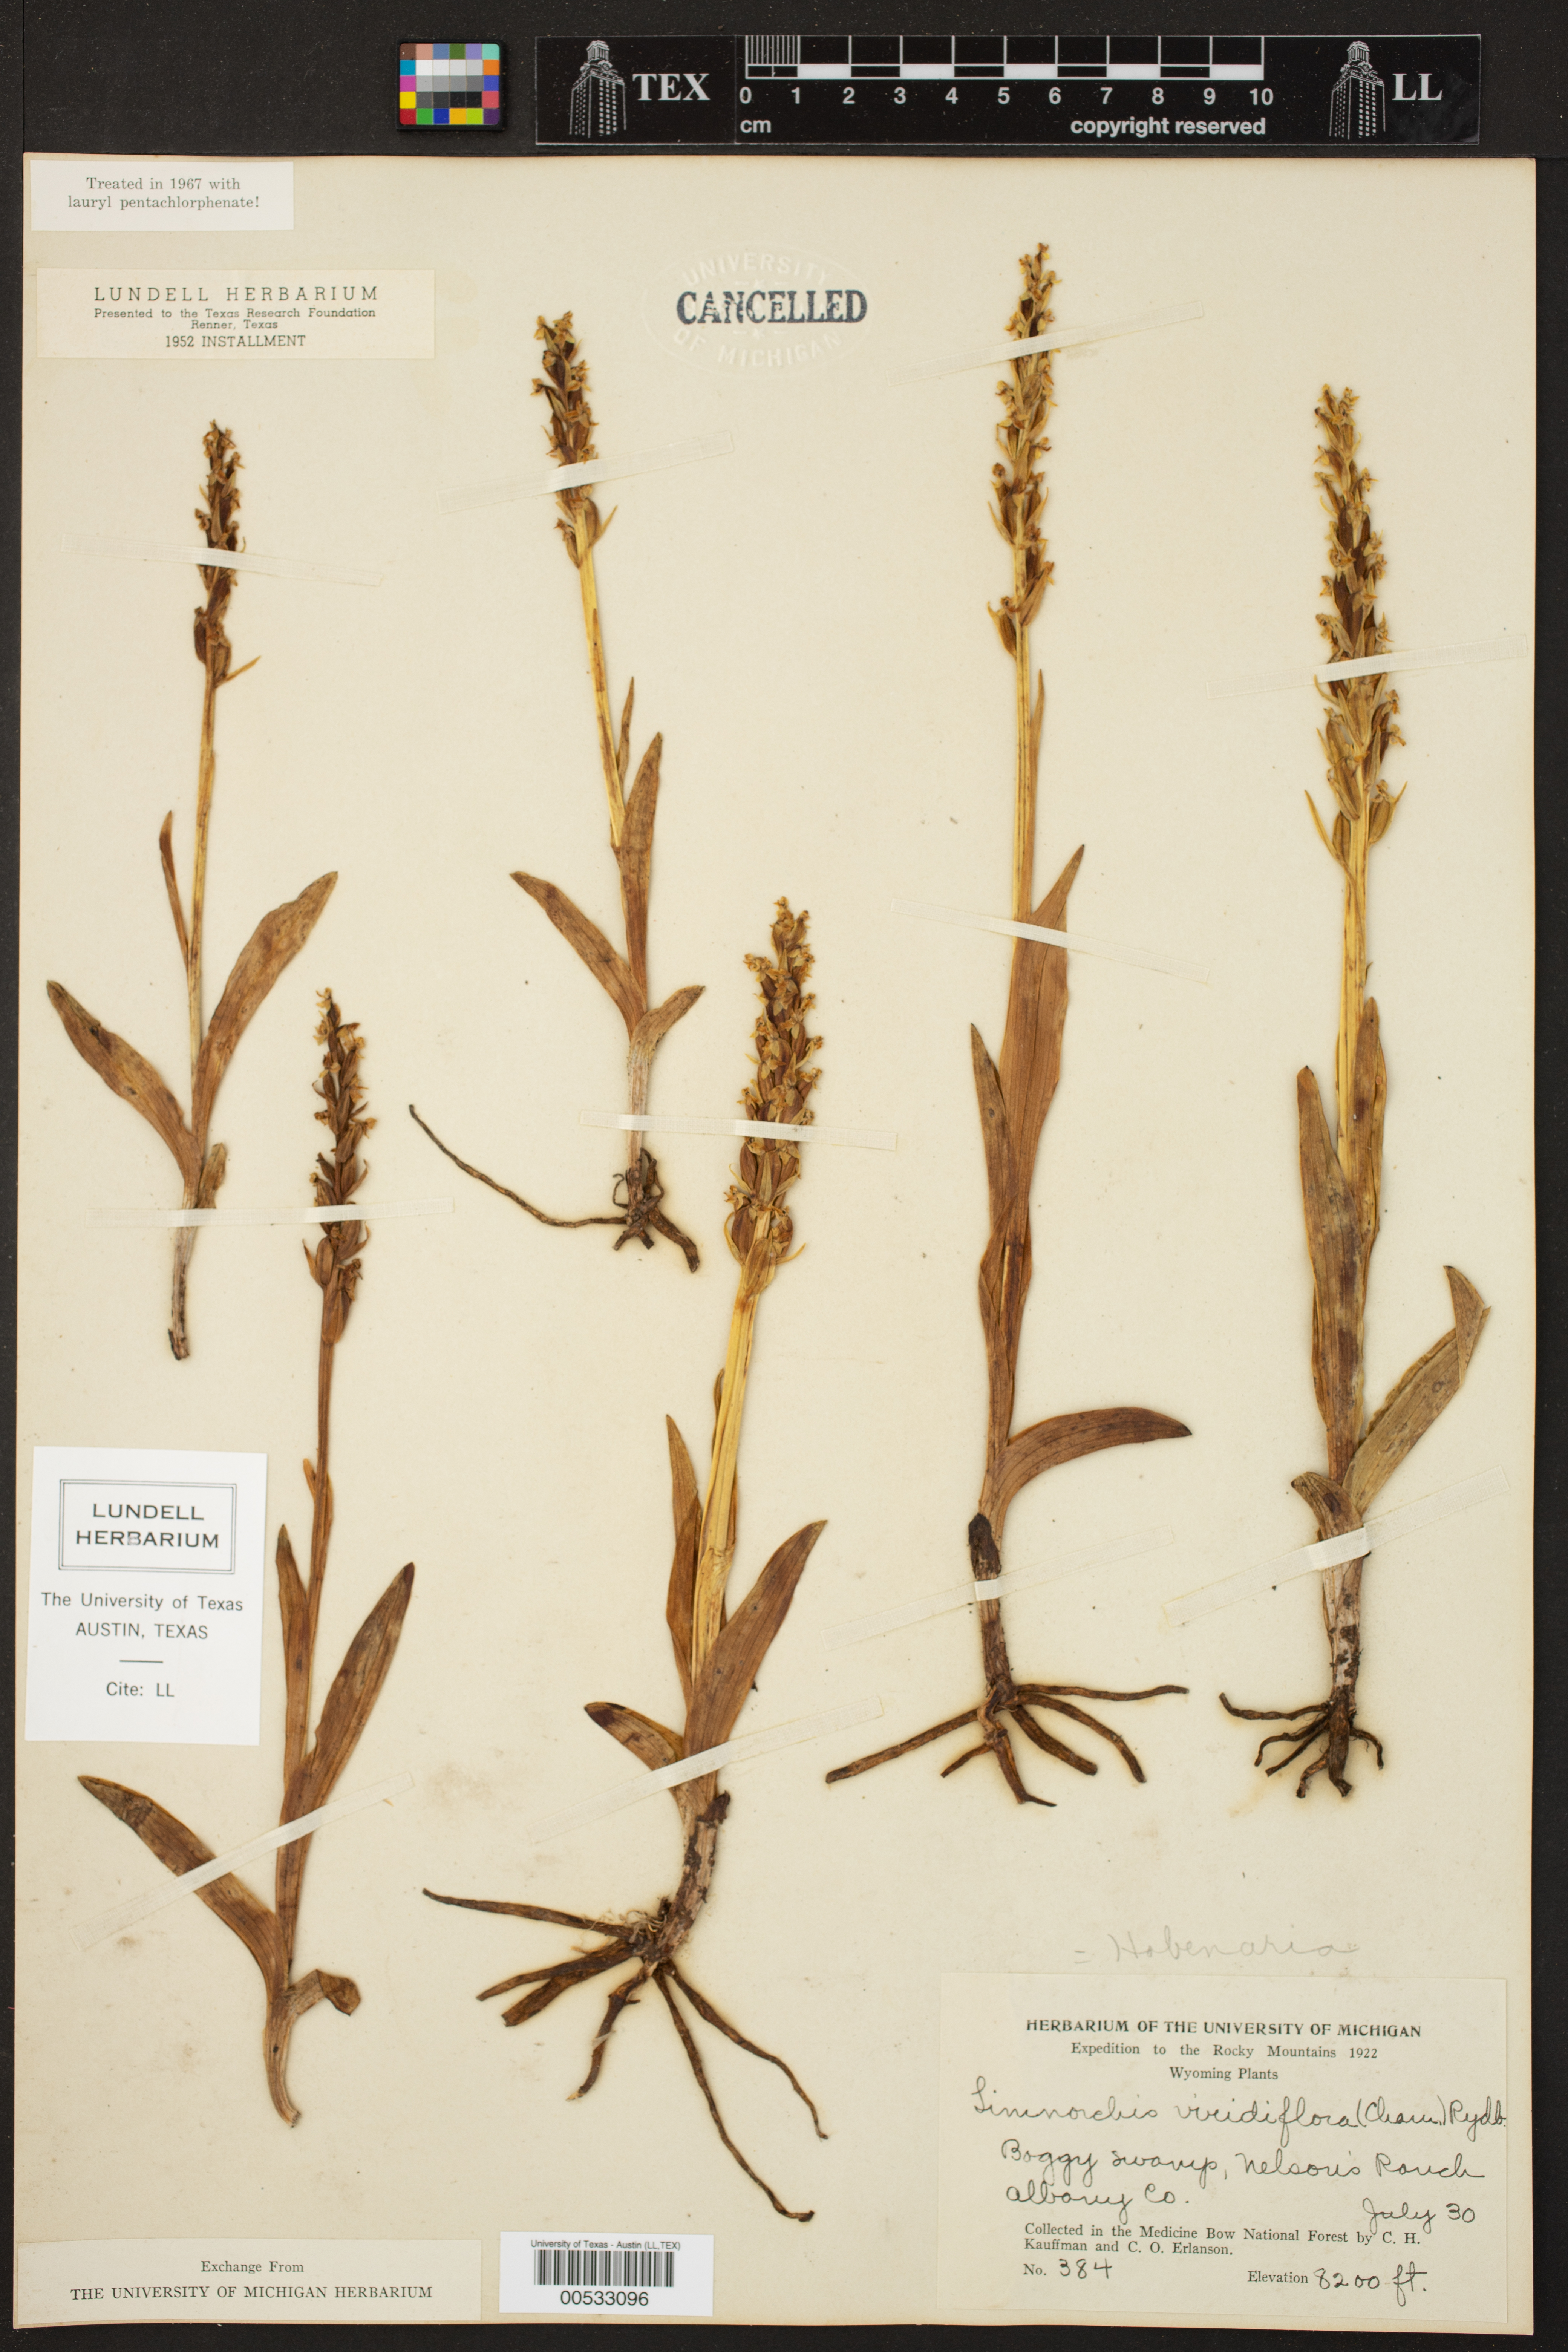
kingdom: Plantae
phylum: Tracheophyta
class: Liliopsida
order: Asparagales
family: Orchidaceae
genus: Platanthera
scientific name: Platanthera stricta
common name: Slender bog orchid
